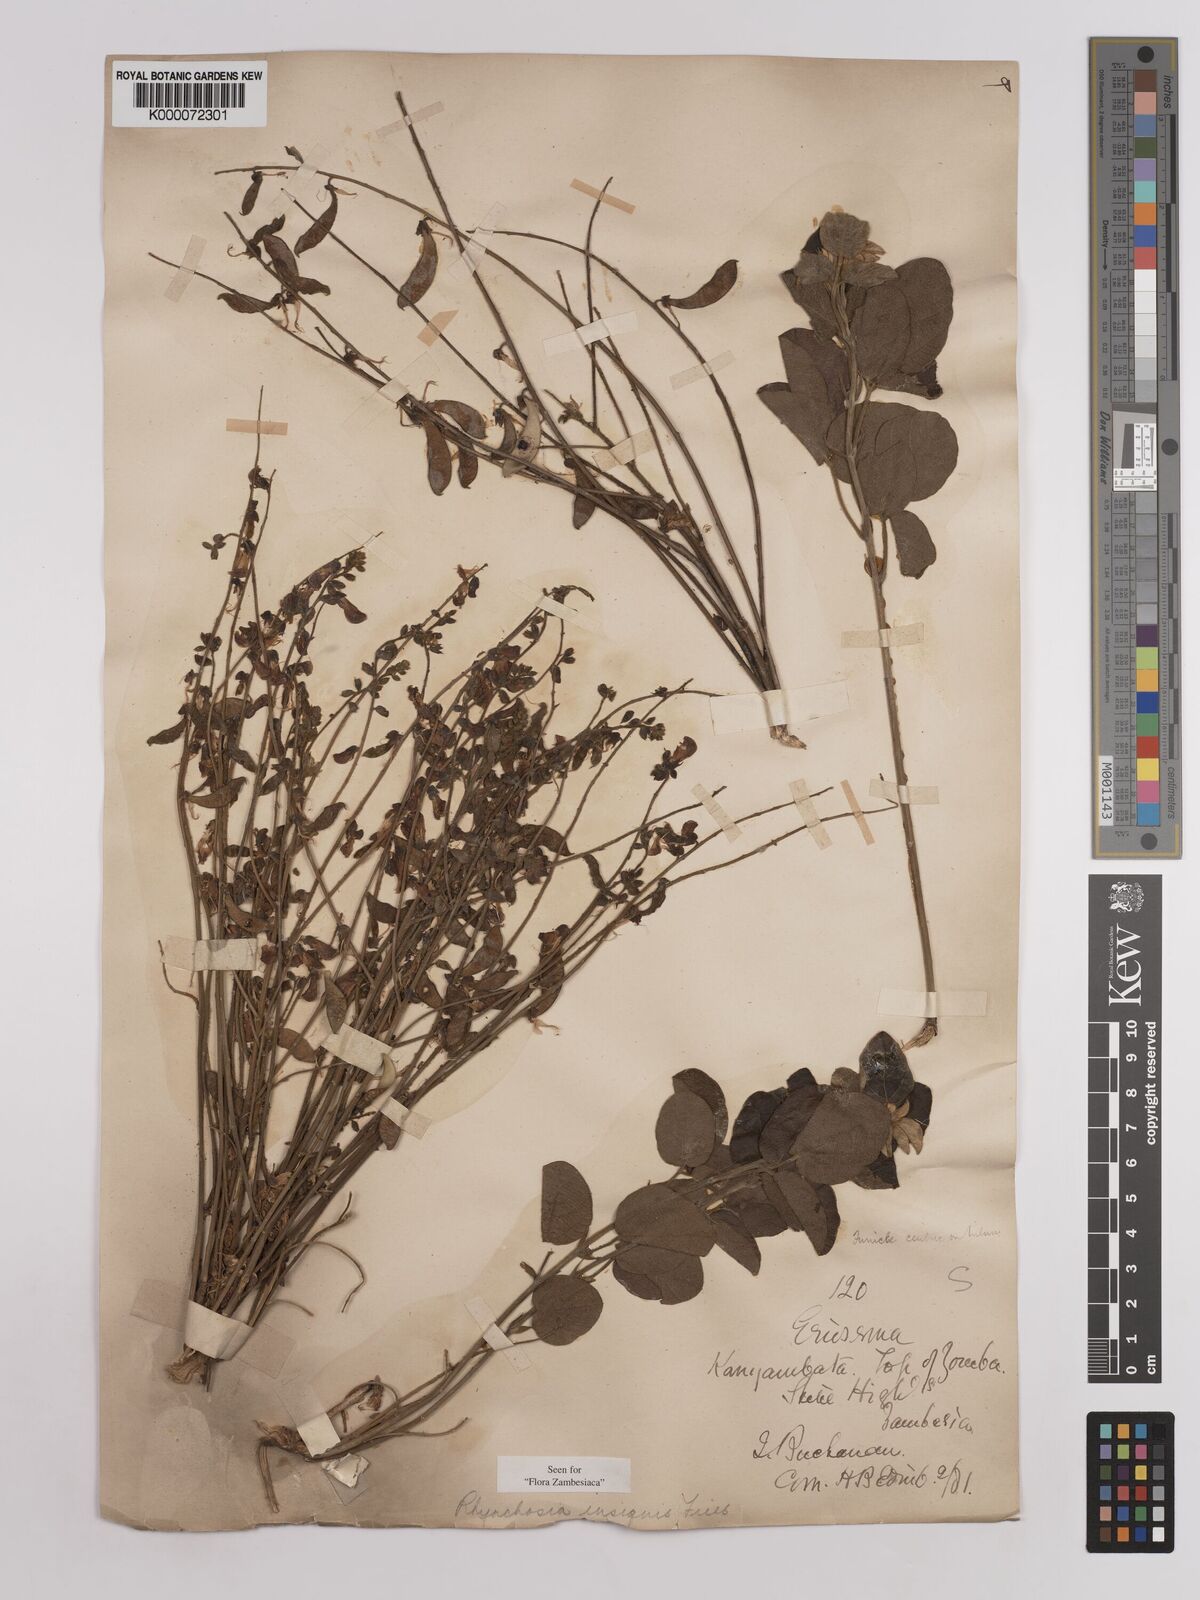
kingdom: Plantae
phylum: Tracheophyta
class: Magnoliopsida
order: Fabales
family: Fabaceae
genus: Rhynchosia
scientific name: Rhynchosia insignis
